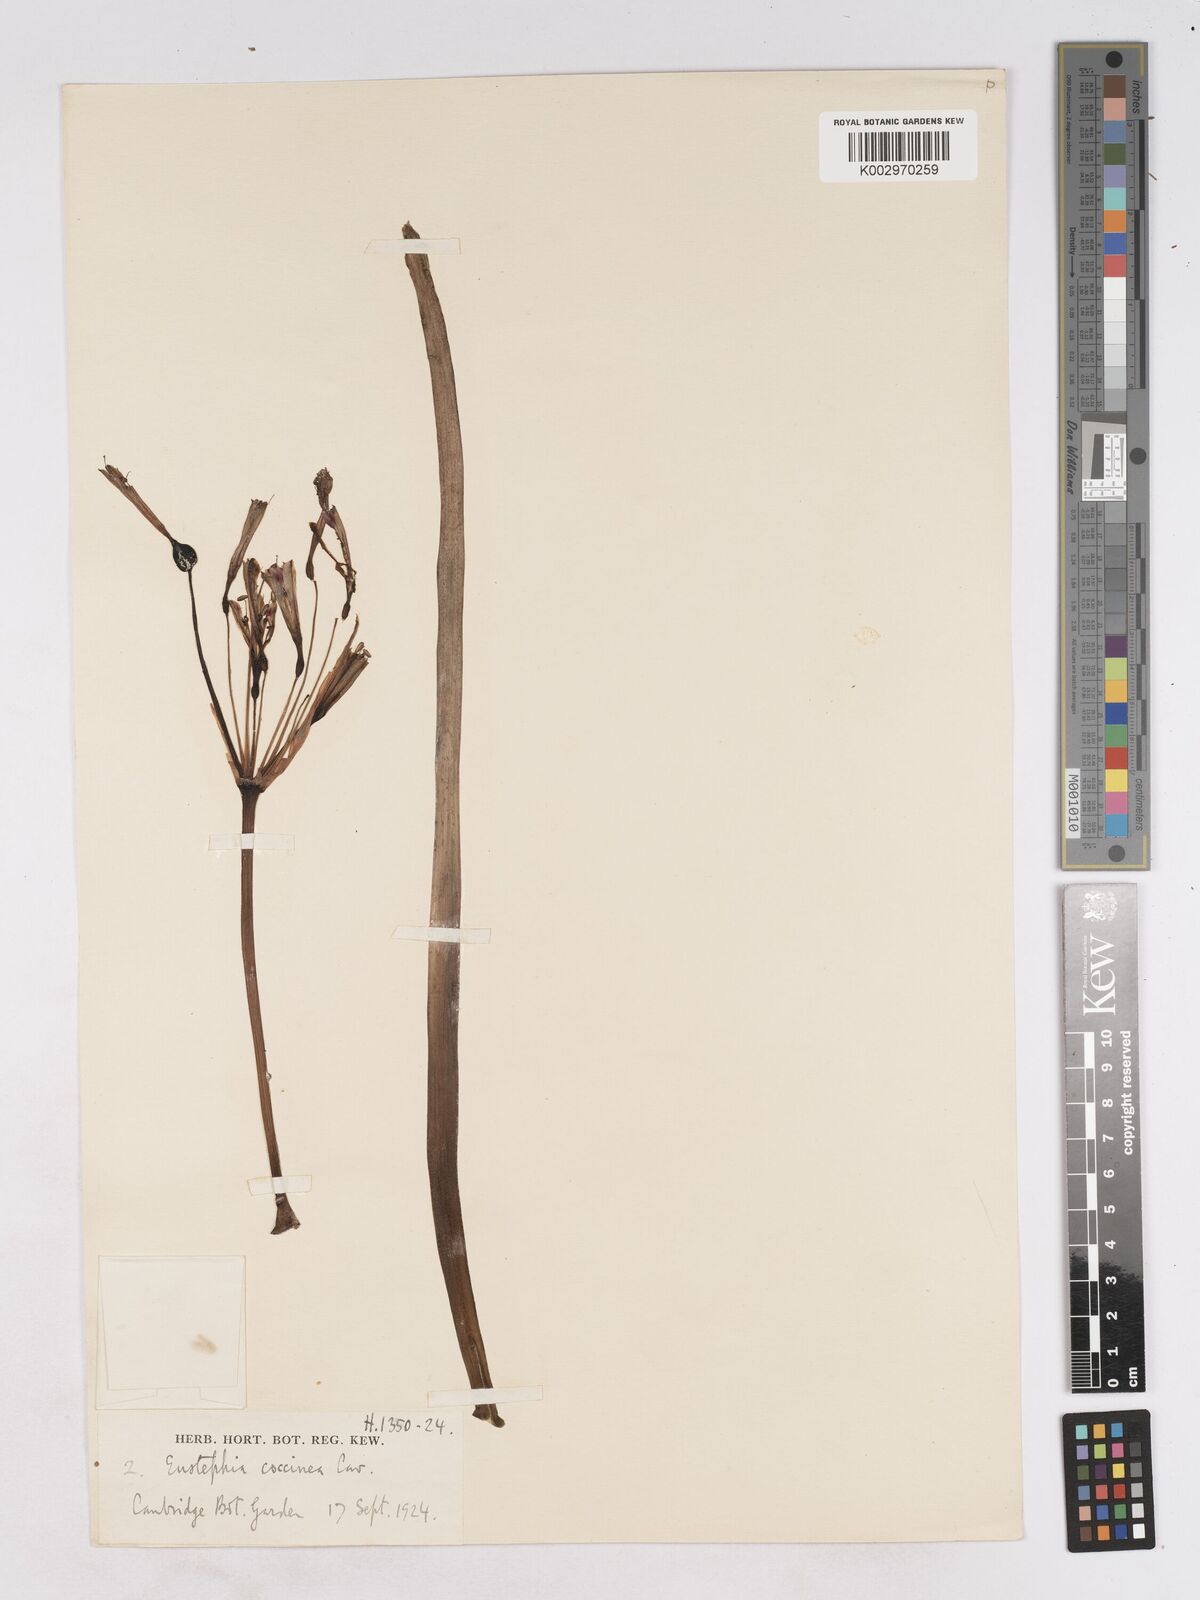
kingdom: Plantae
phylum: Tracheophyta
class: Liliopsida
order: Asparagales
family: Amaryllidaceae
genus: Eustephia
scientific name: Eustephia coccinea
